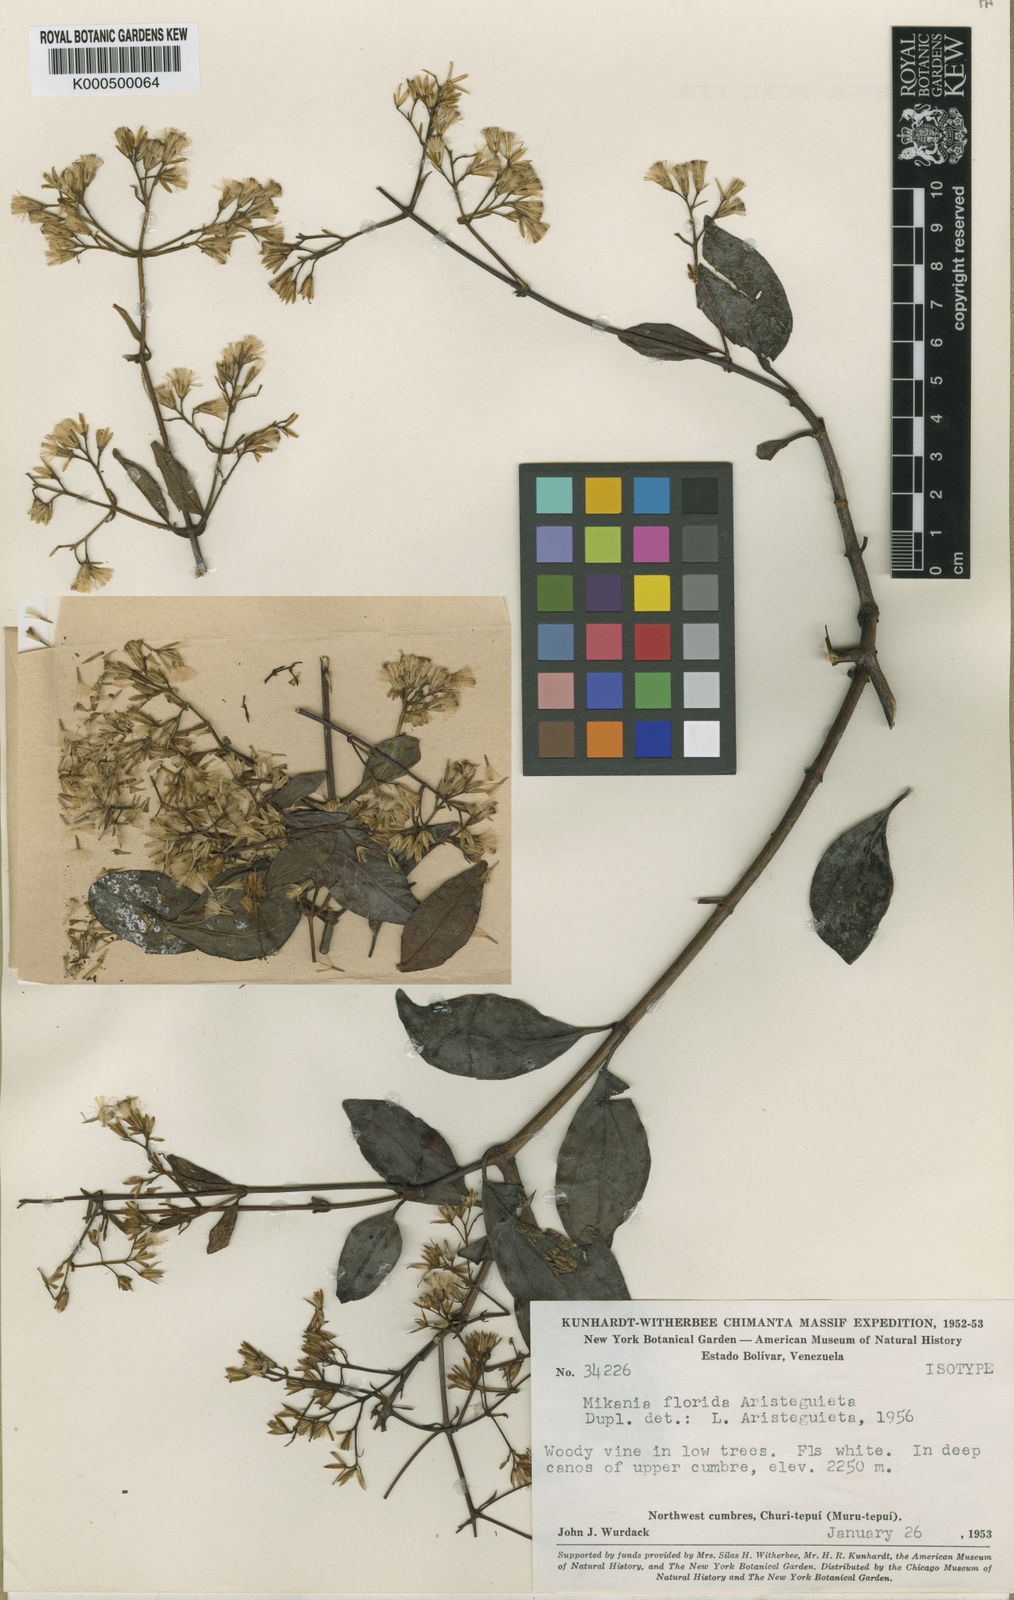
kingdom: Plantae
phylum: Tracheophyta
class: Magnoliopsida
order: Asterales
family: Asteraceae
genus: Mikania
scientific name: Mikania lucida
